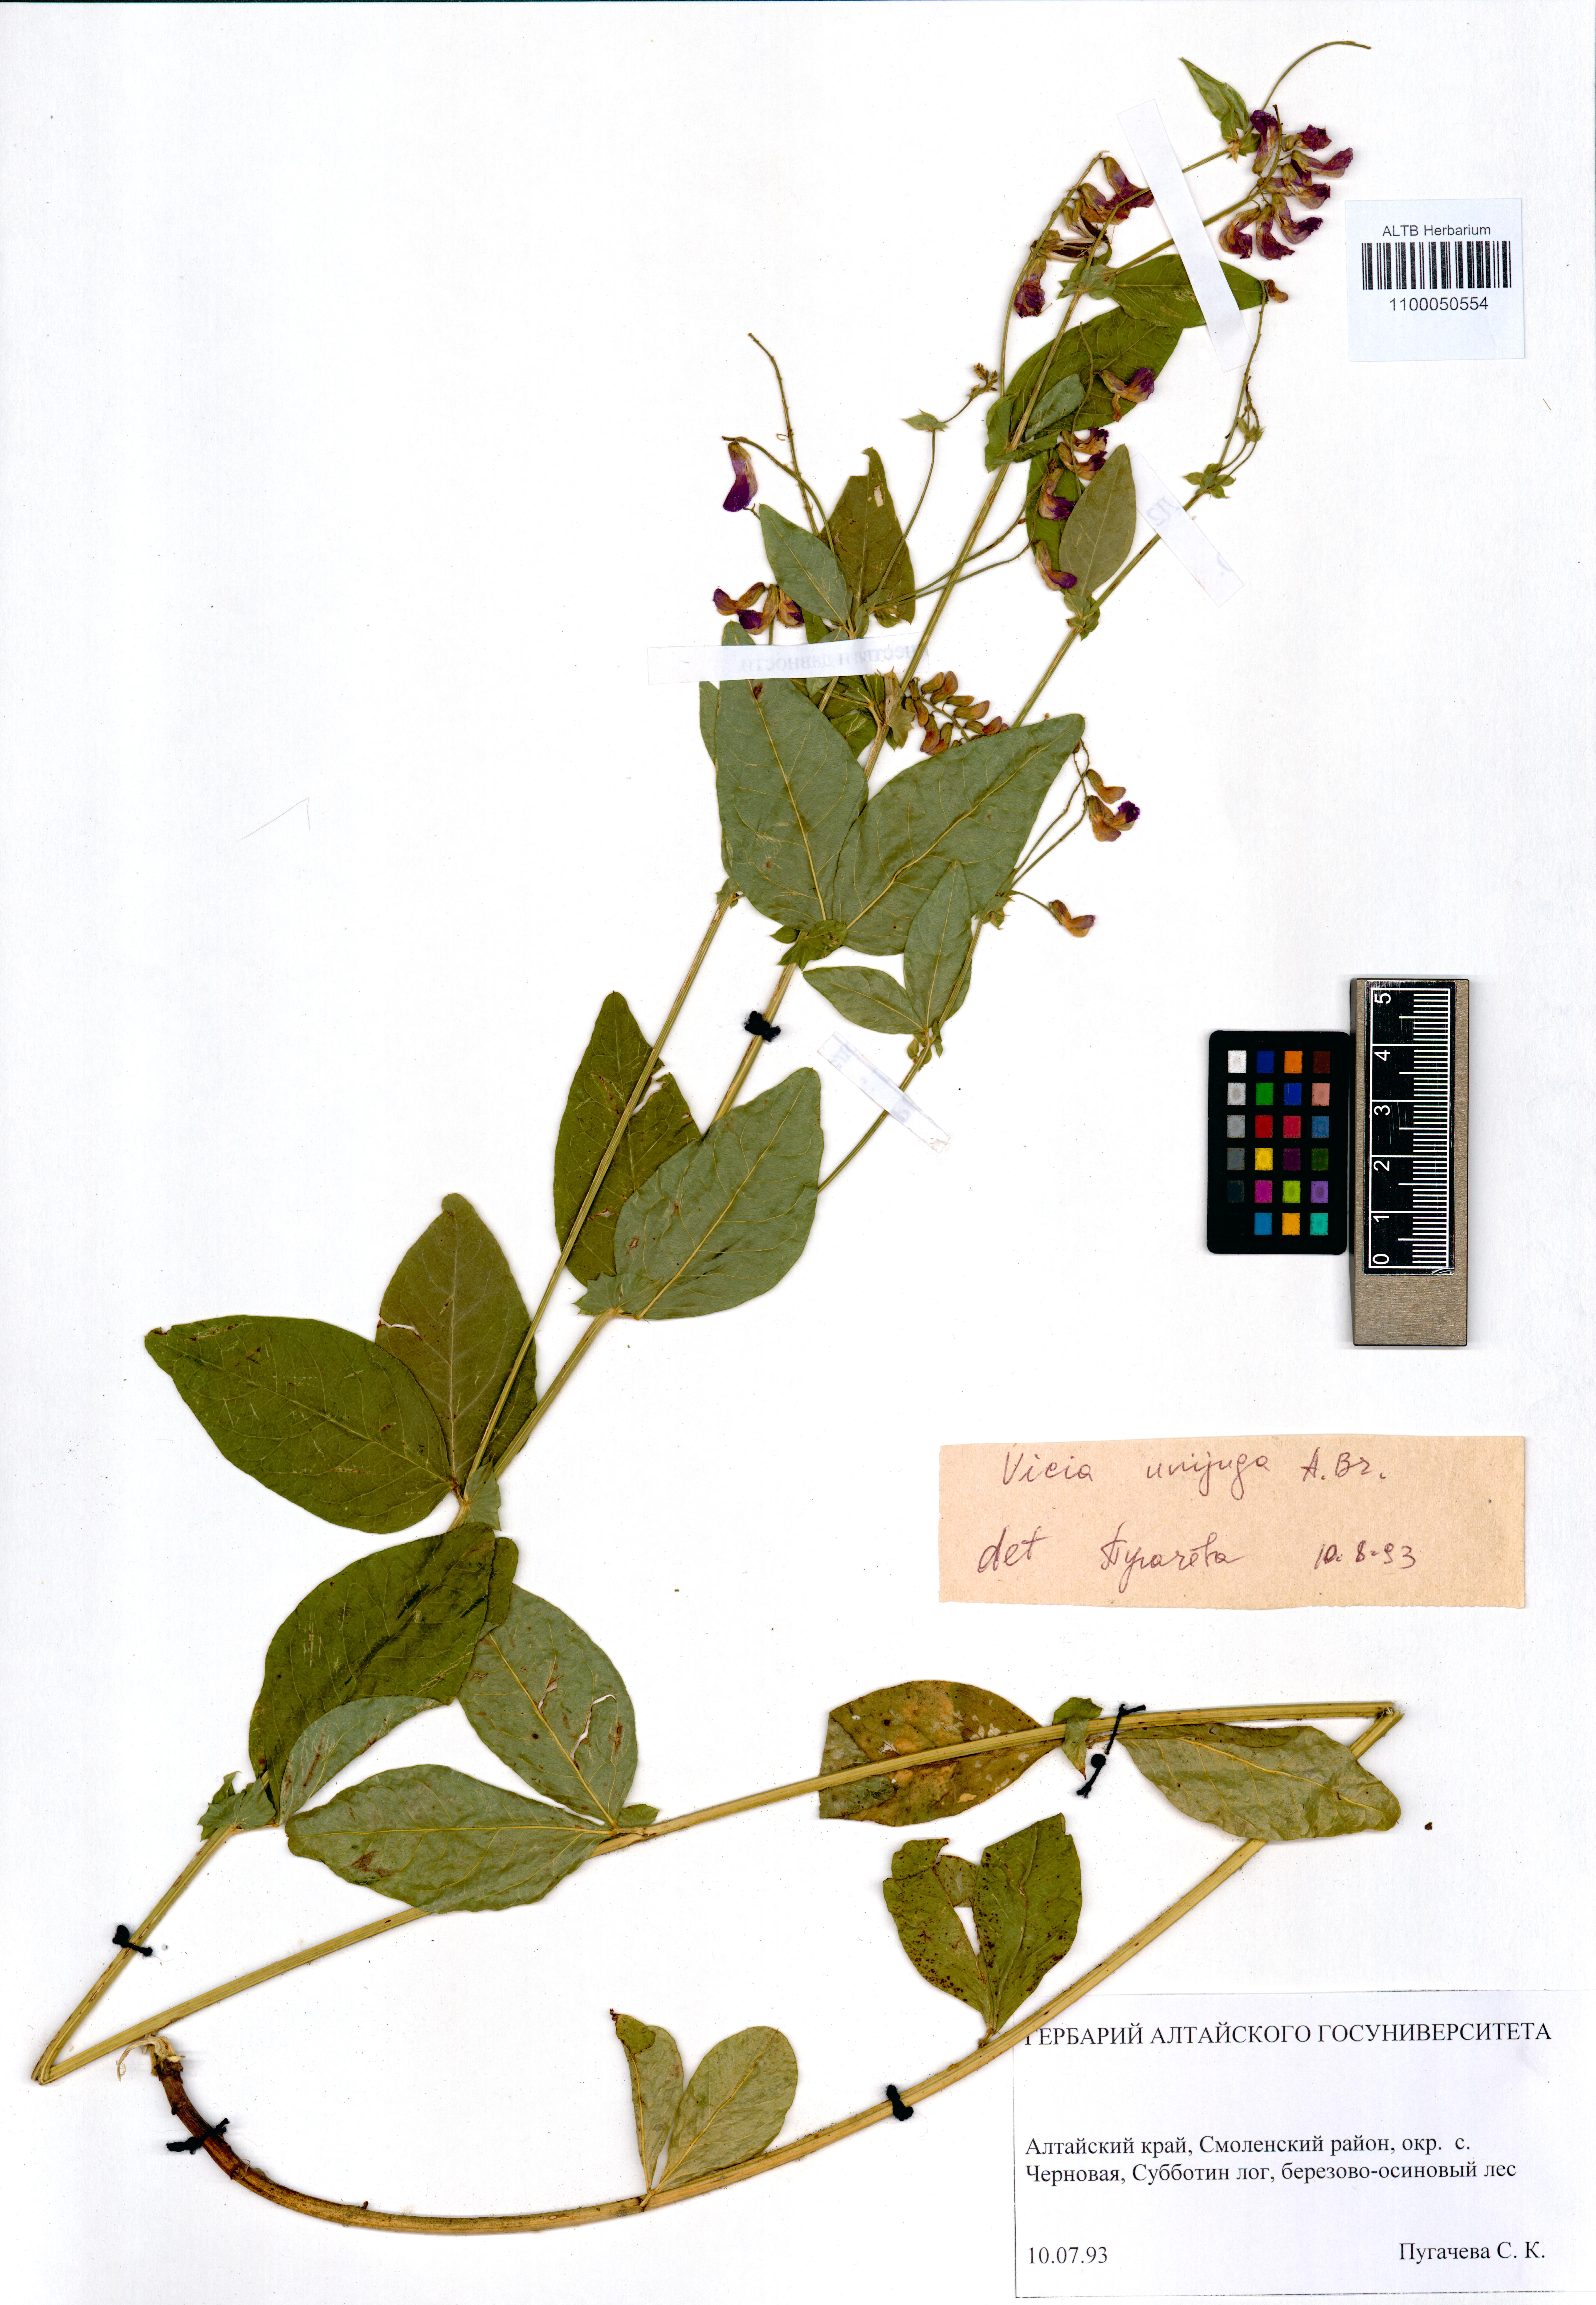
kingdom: Plantae
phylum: Tracheophyta
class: Magnoliopsida
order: Fabales
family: Fabaceae
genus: Vicia
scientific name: Vicia unijuga
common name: Two-leaf vetch
